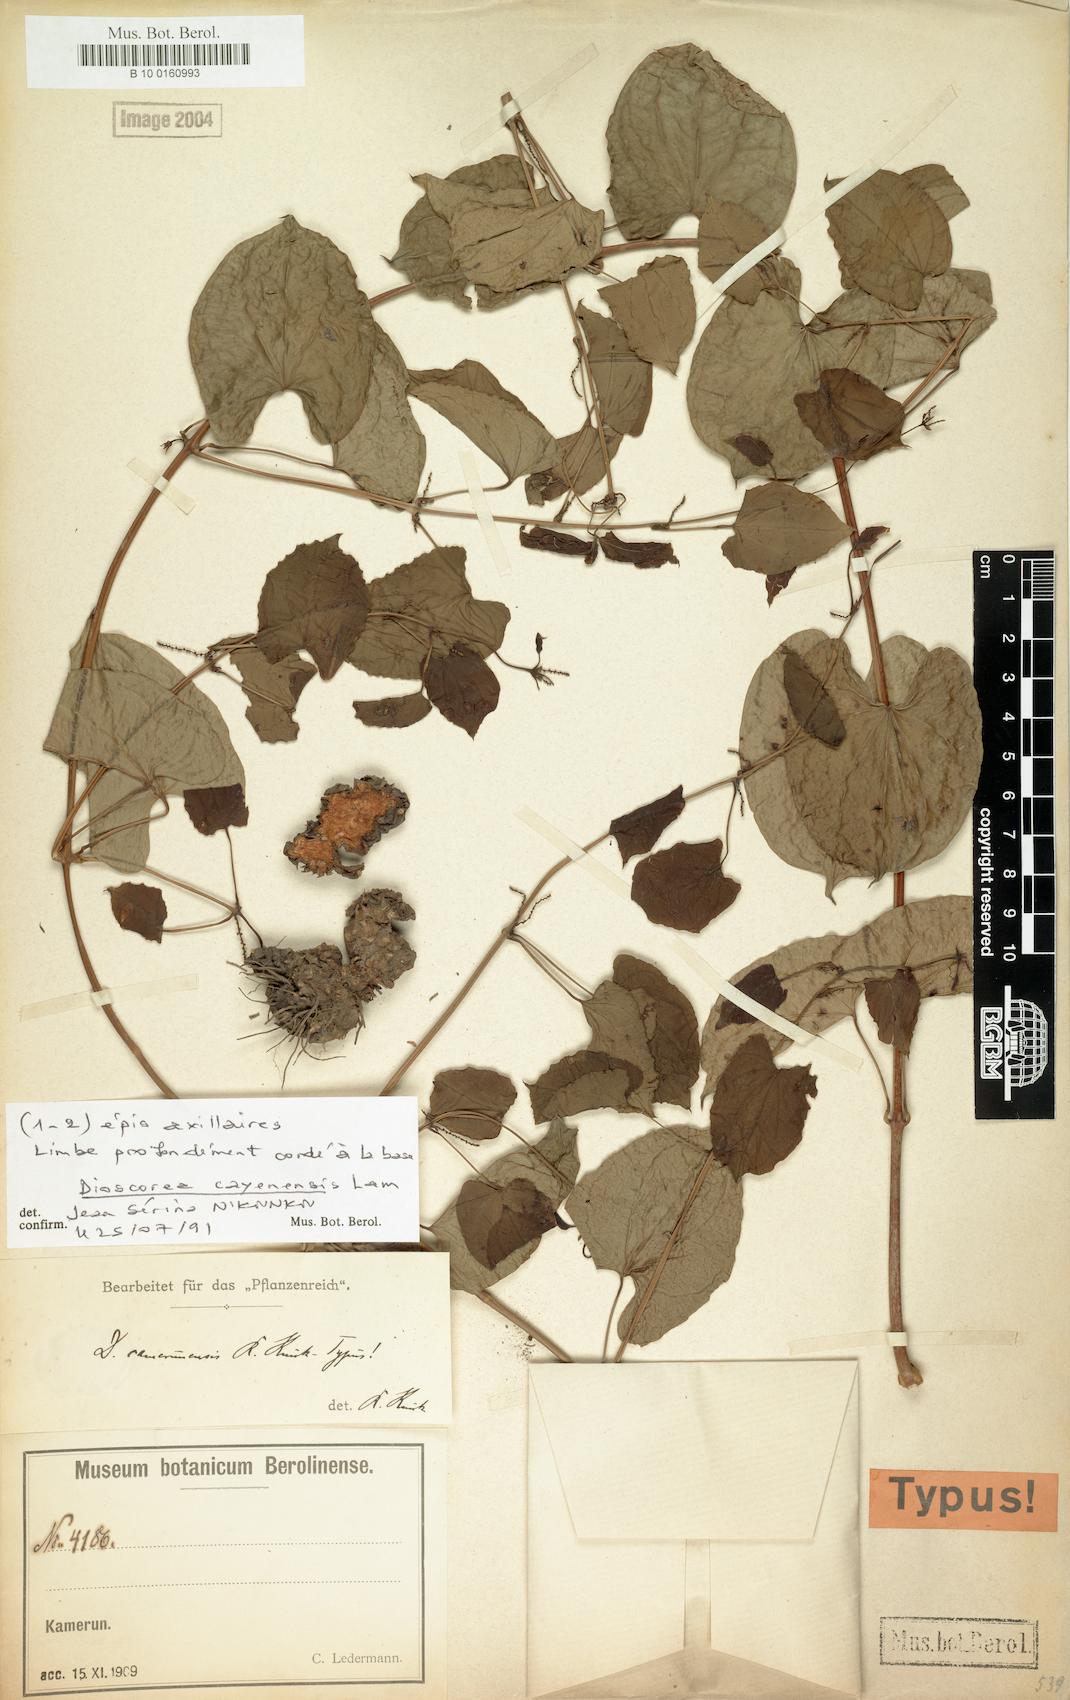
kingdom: Plantae
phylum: Tracheophyta
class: Liliopsida
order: Dioscoreales
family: Dioscoreaceae
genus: Dioscorea
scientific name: Dioscorea cayenensis
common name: Attoto yam
